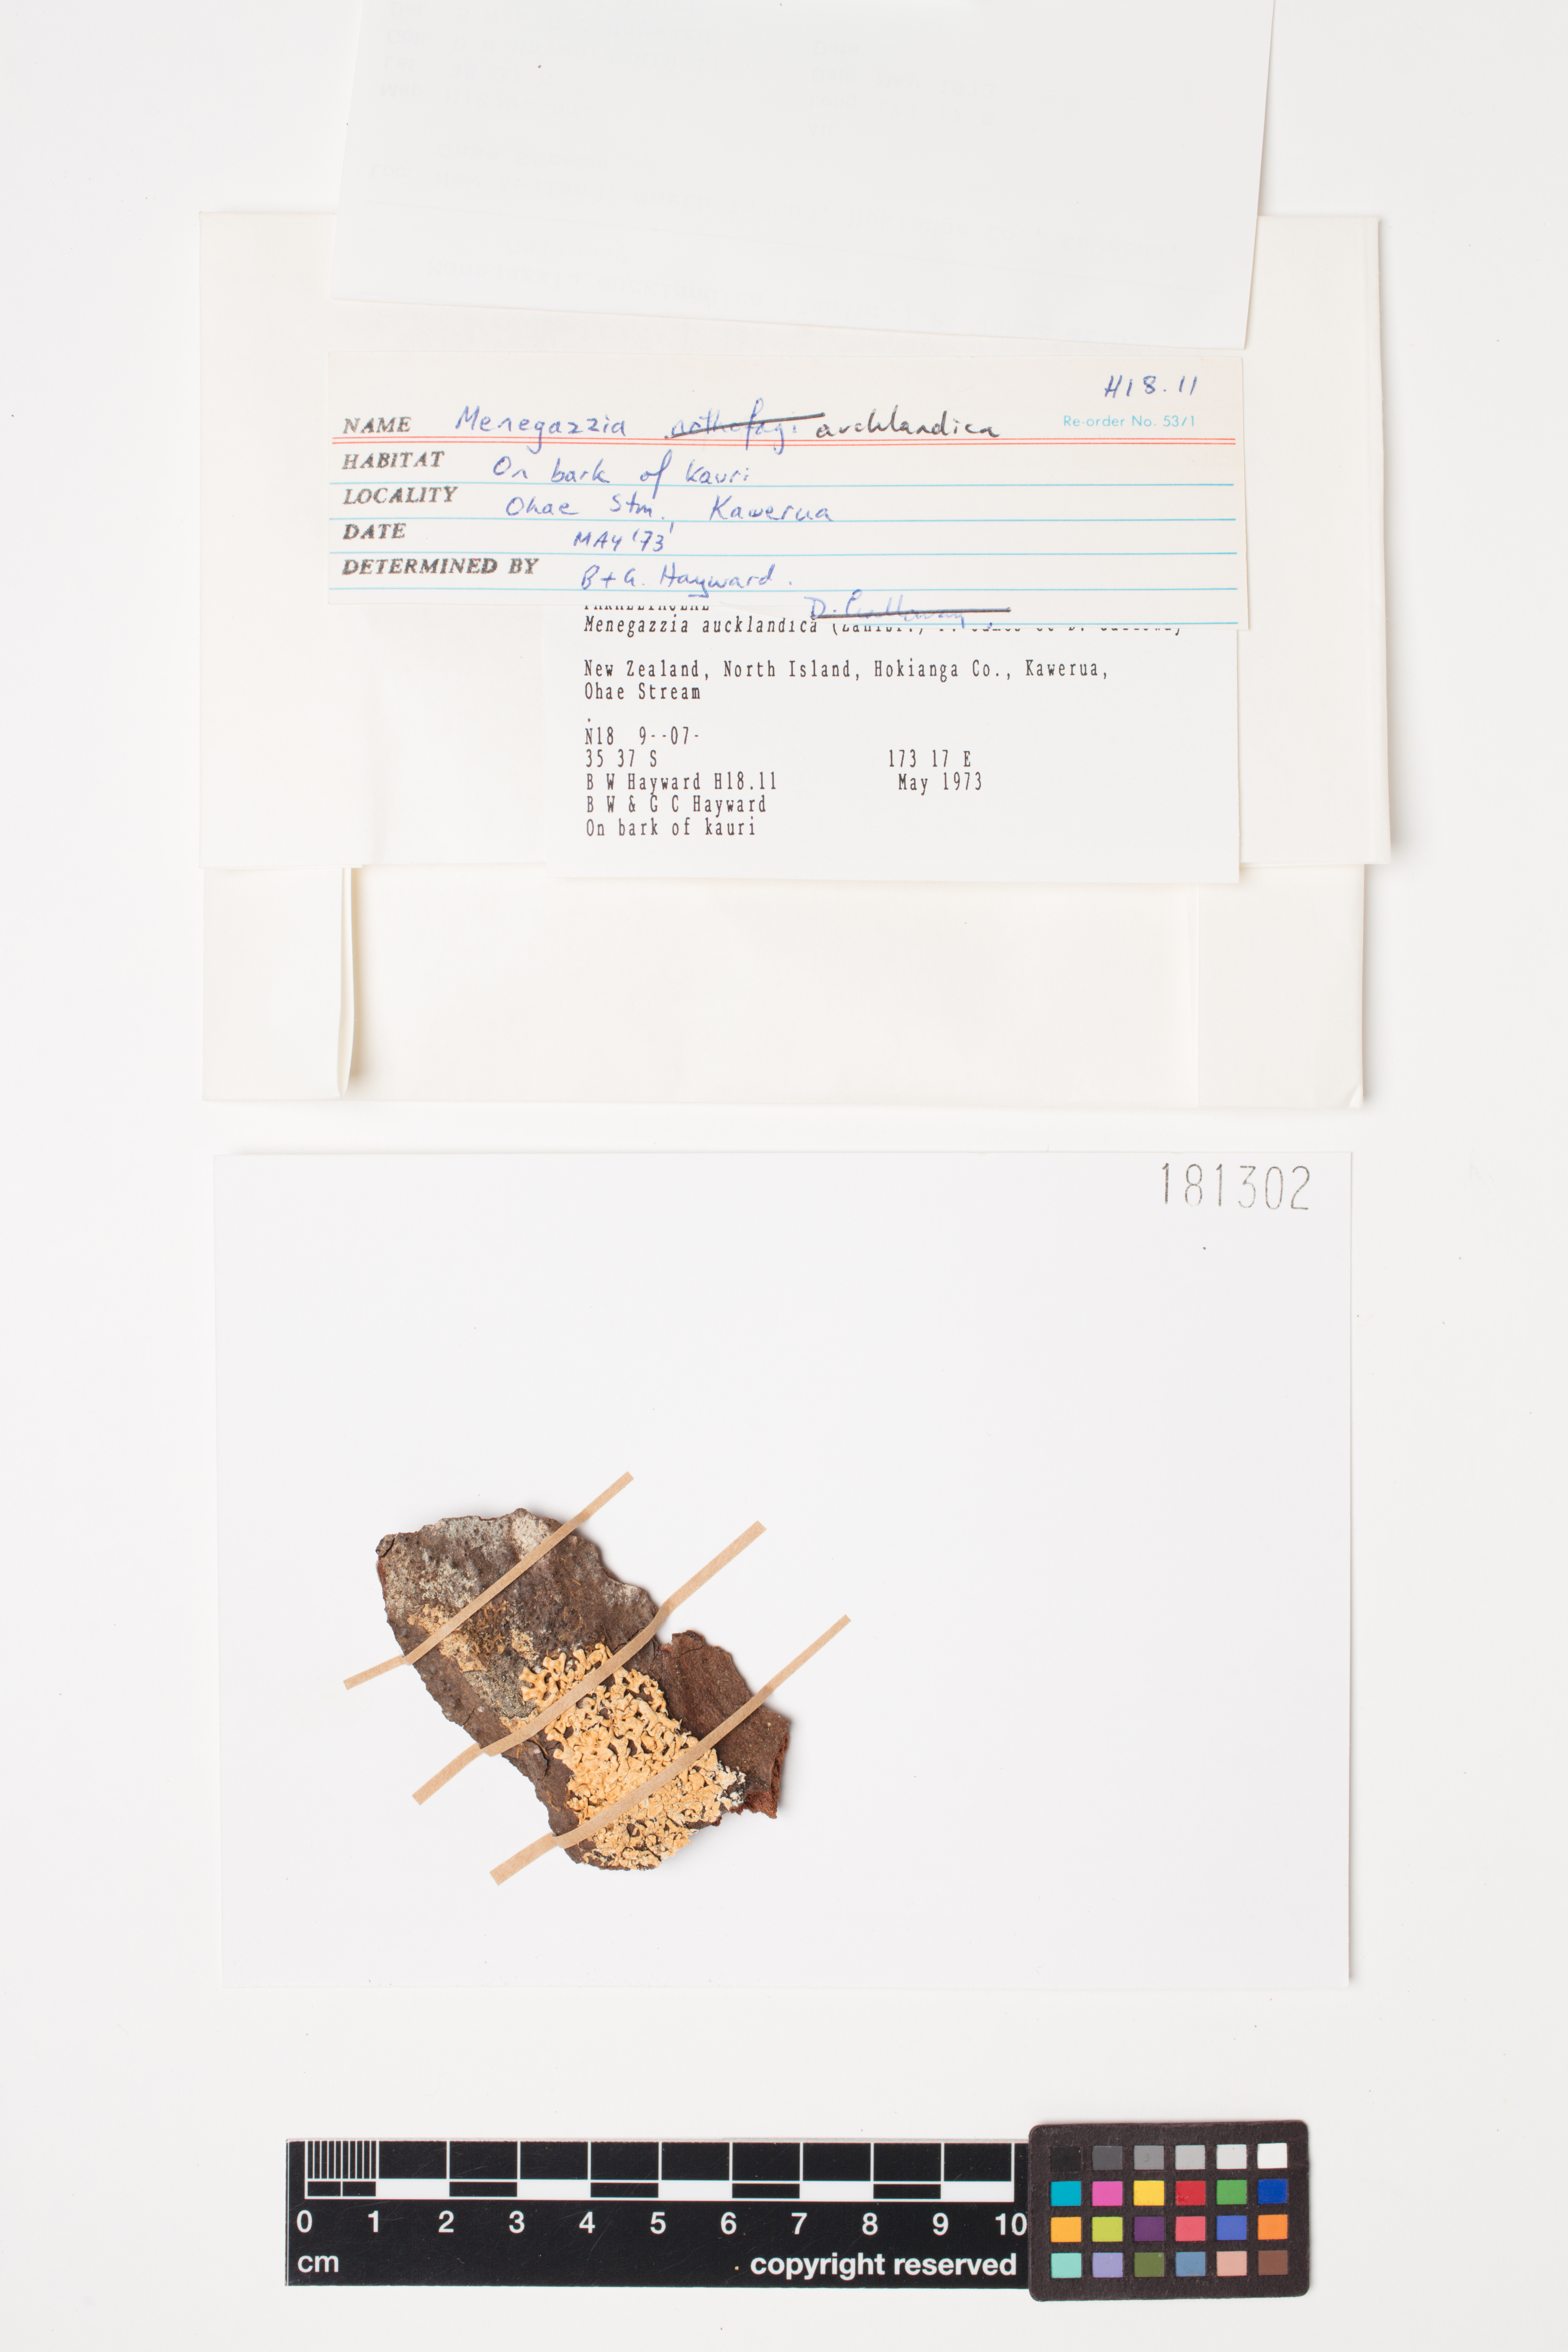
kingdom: Fungi
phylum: Ascomycota
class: Lecanoromycetes
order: Lecanorales
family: Parmeliaceae
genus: Menegazzia
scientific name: Menegazzia aucklandica
